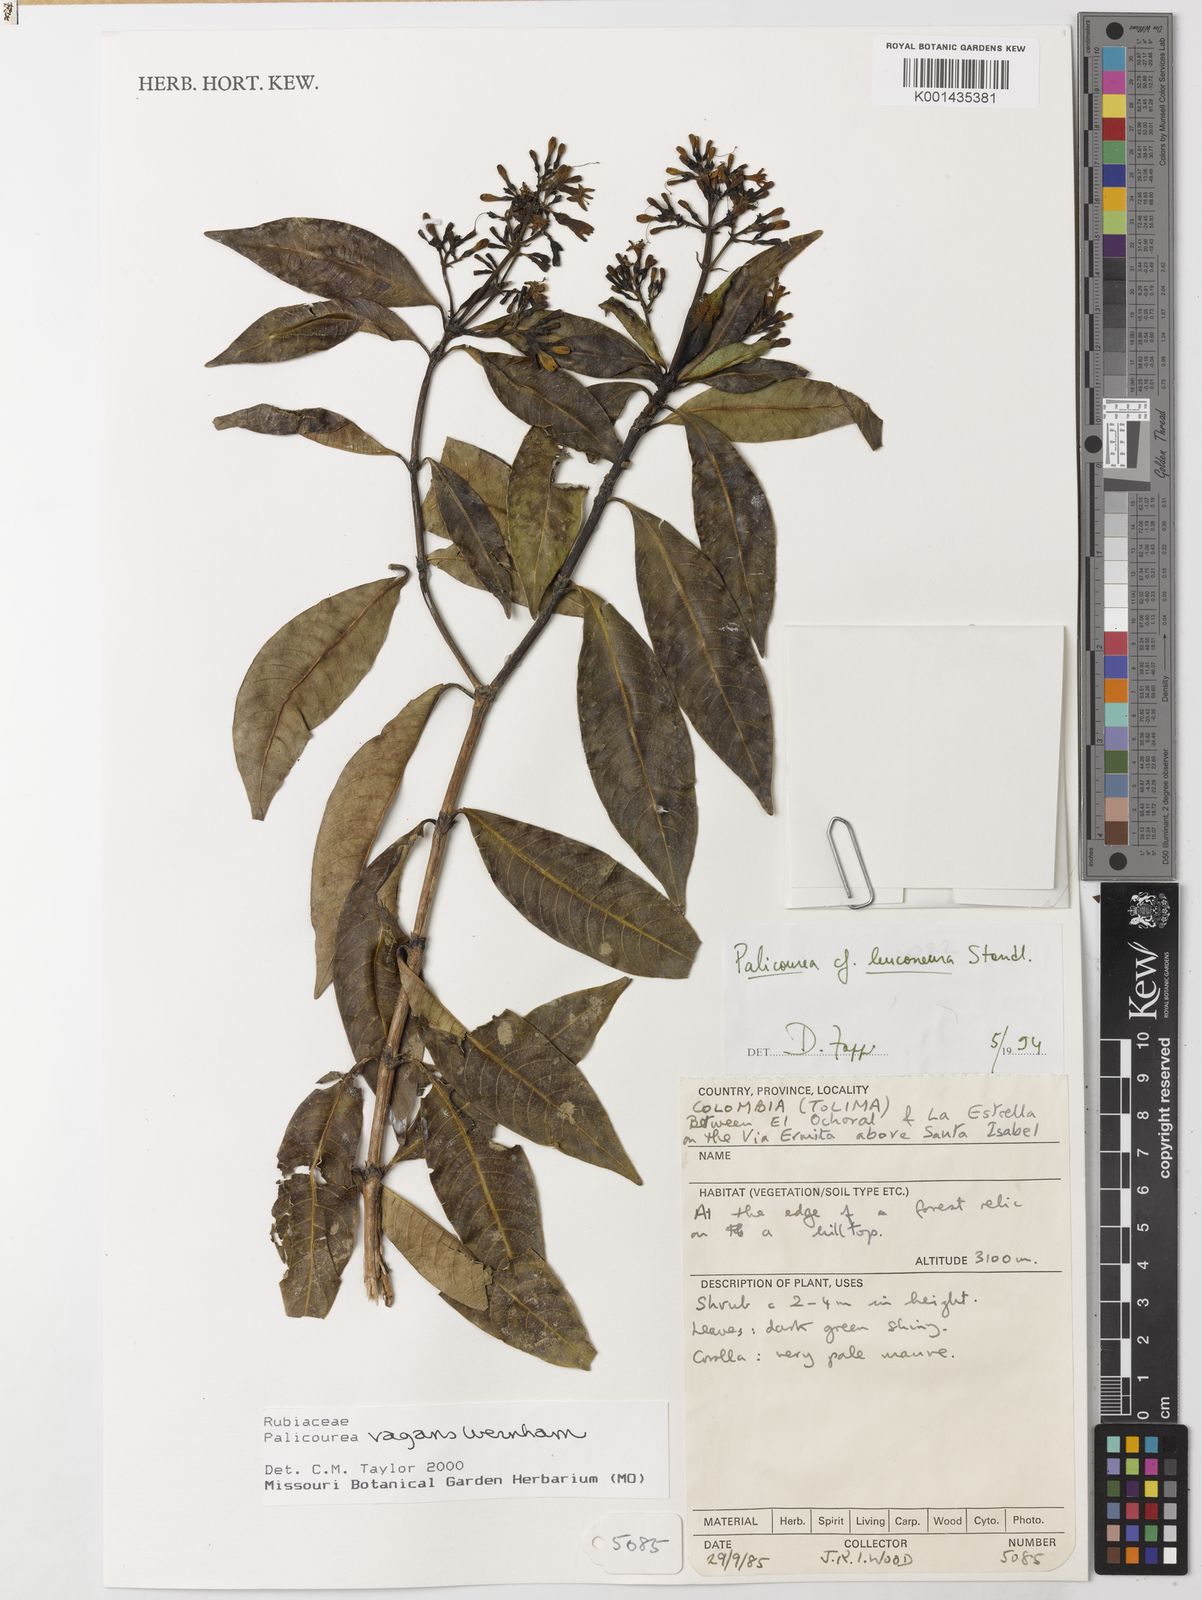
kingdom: Plantae
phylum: Tracheophyta
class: Magnoliopsida
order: Gentianales
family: Rubiaceae
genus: Palicourea
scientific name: Palicourea vagans
